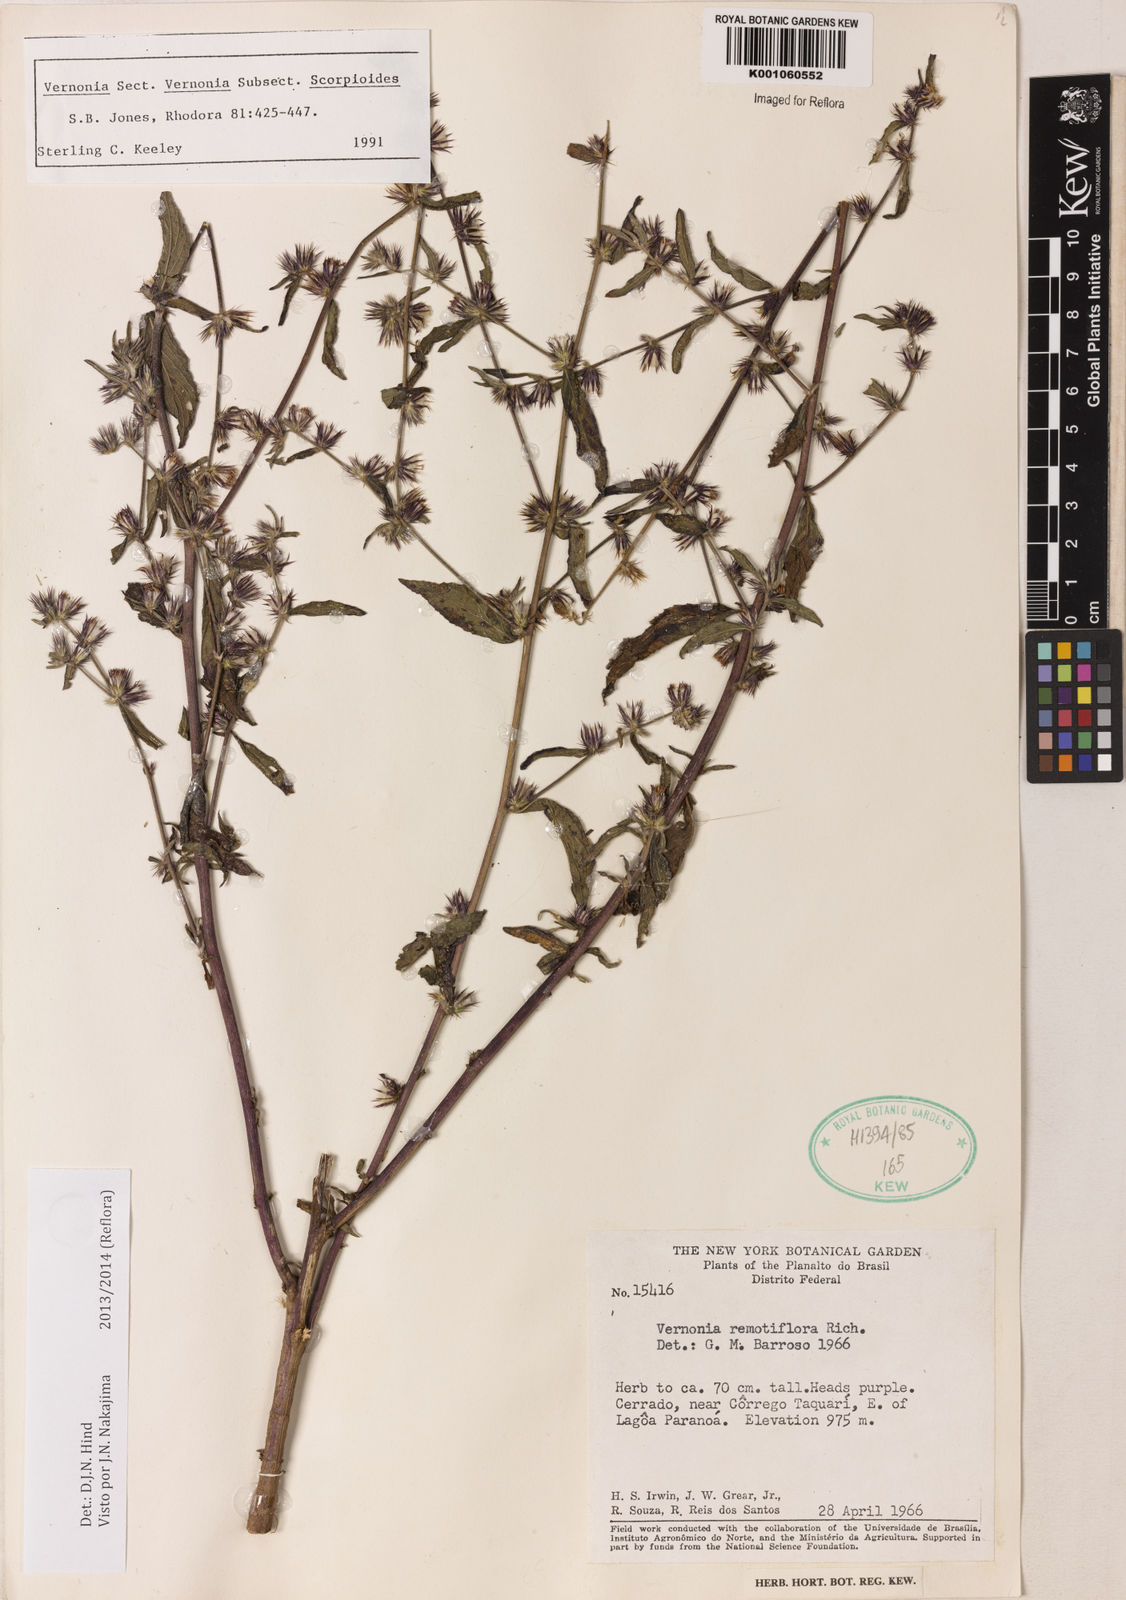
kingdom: Plantae
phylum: Tracheophyta
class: Magnoliopsida
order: Asterales
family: Asteraceae
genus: Lepidaploa
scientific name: Lepidaploa remotiflora
